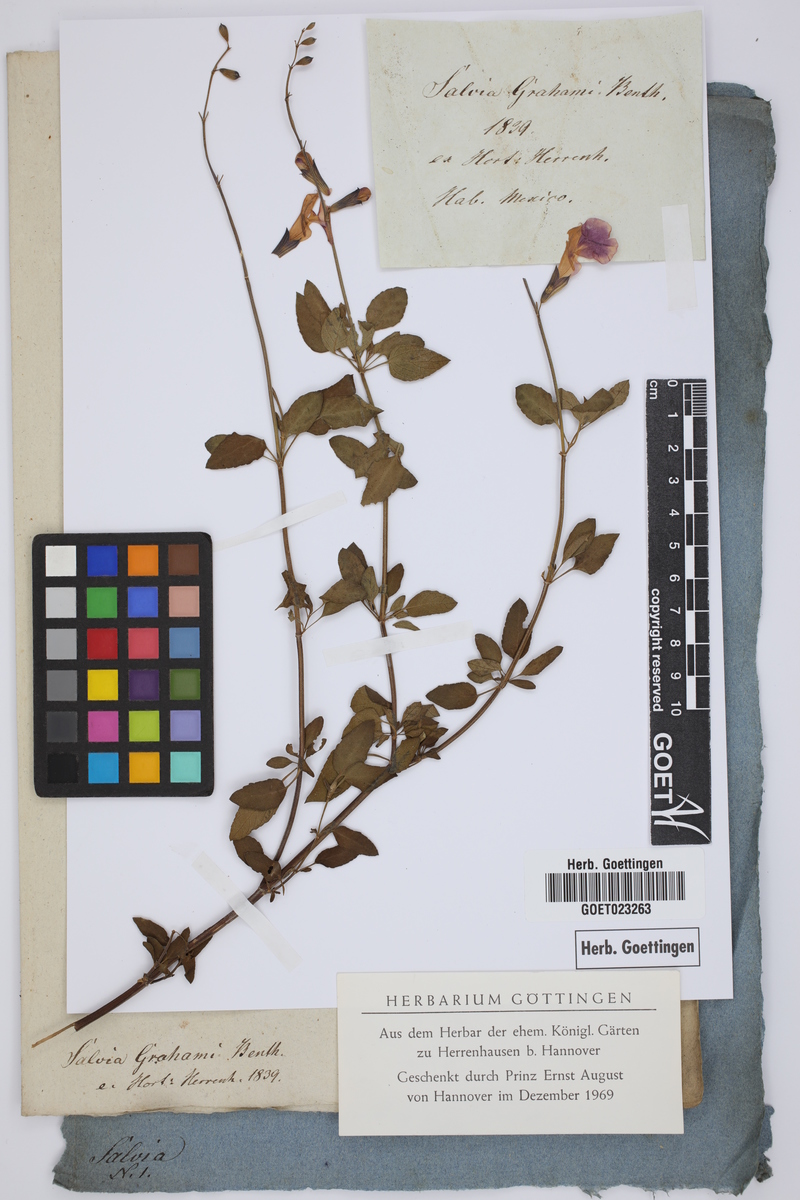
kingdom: Plantae
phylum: Tracheophyta
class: Magnoliopsida
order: Lamiales
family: Lamiaceae
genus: Salvia
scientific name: Salvia microphylla
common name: Baby sage
